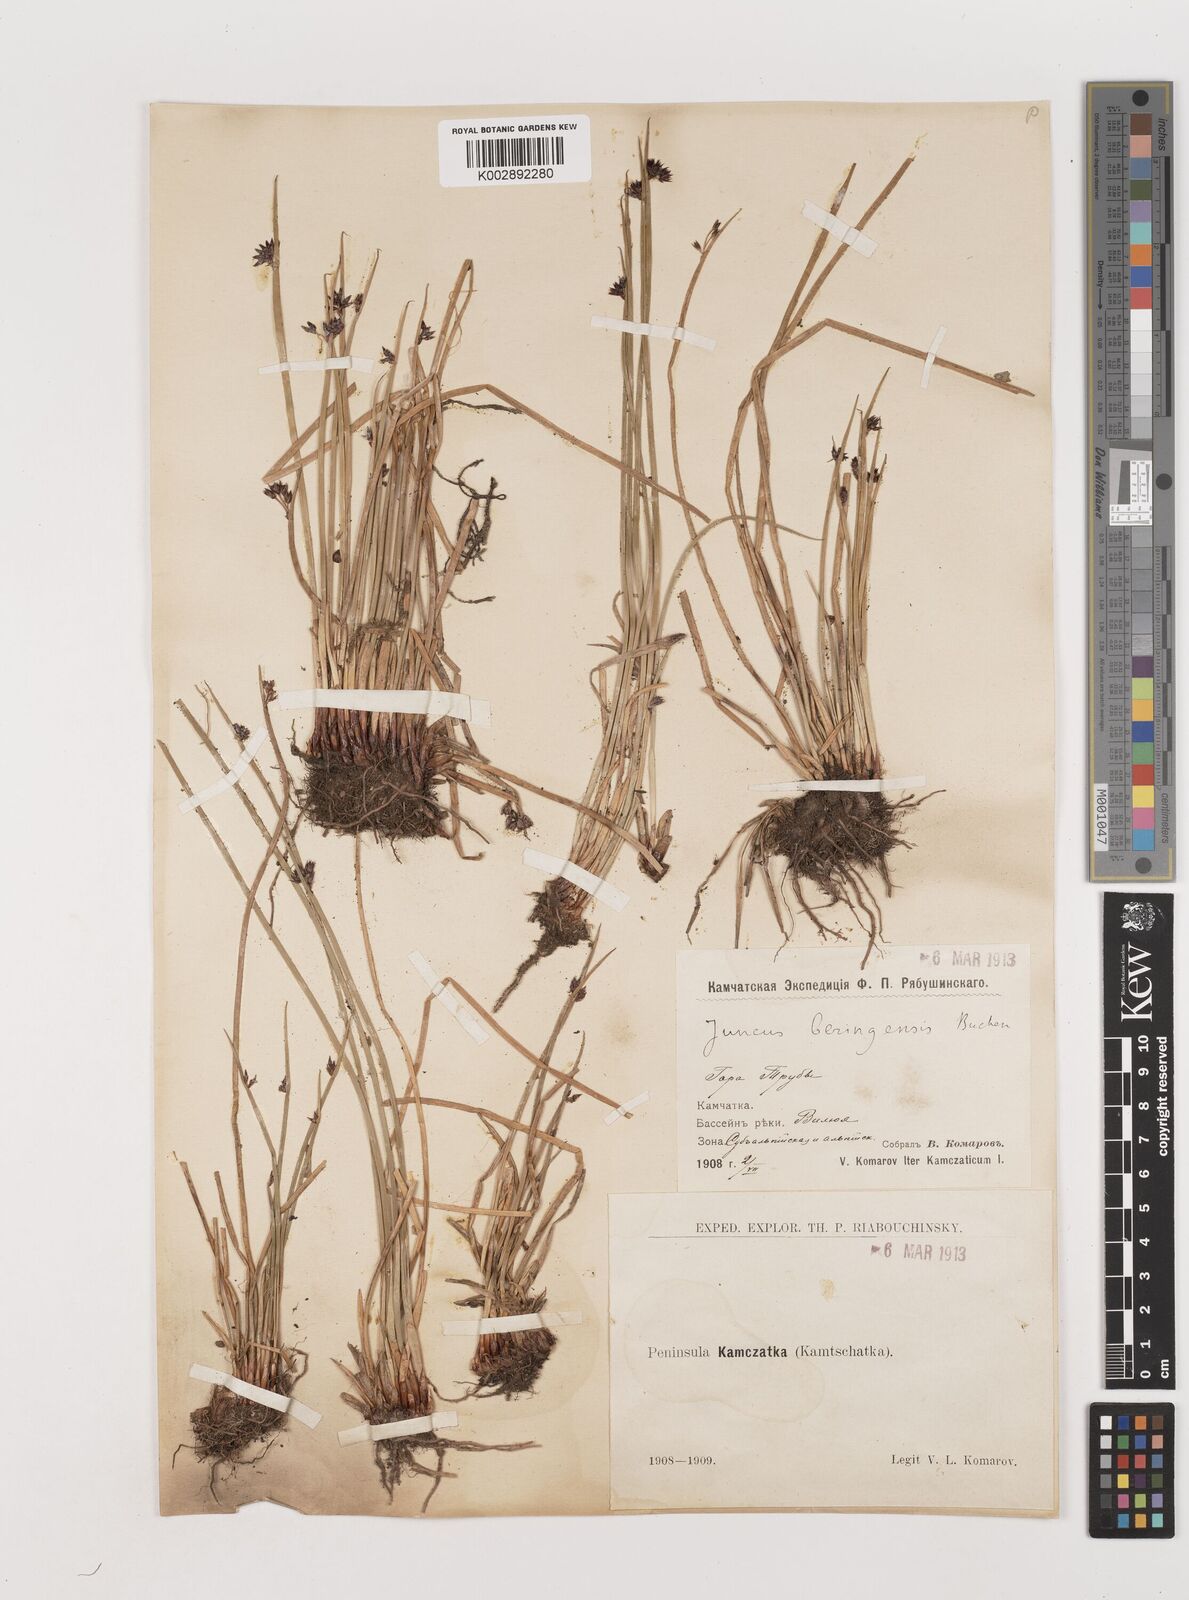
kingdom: Plantae
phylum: Tracheophyta
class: Liliopsida
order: Poales
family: Juncaceae
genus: Juncus
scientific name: Juncus beringensis
